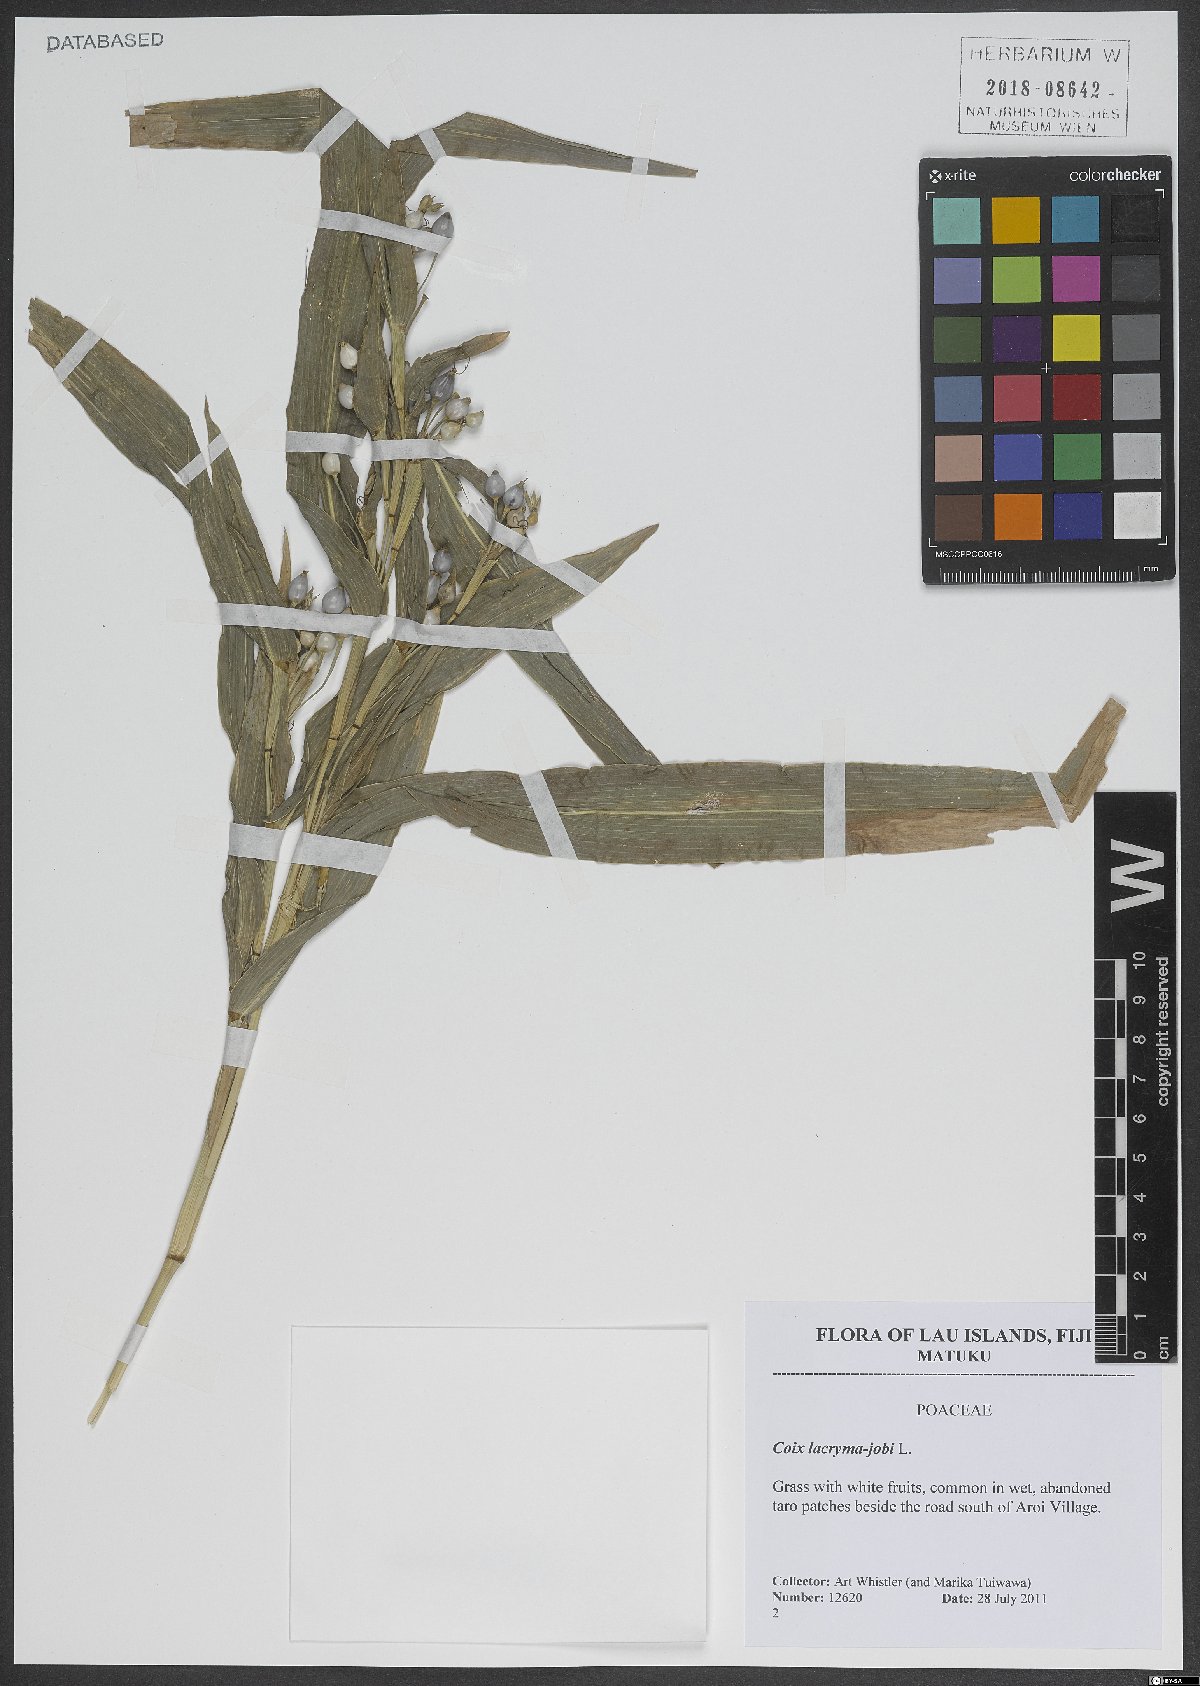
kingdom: Plantae
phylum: Tracheophyta
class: Liliopsida
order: Poales
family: Poaceae
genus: Coix
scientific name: Coix lacryma-jobi
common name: Job's tears
